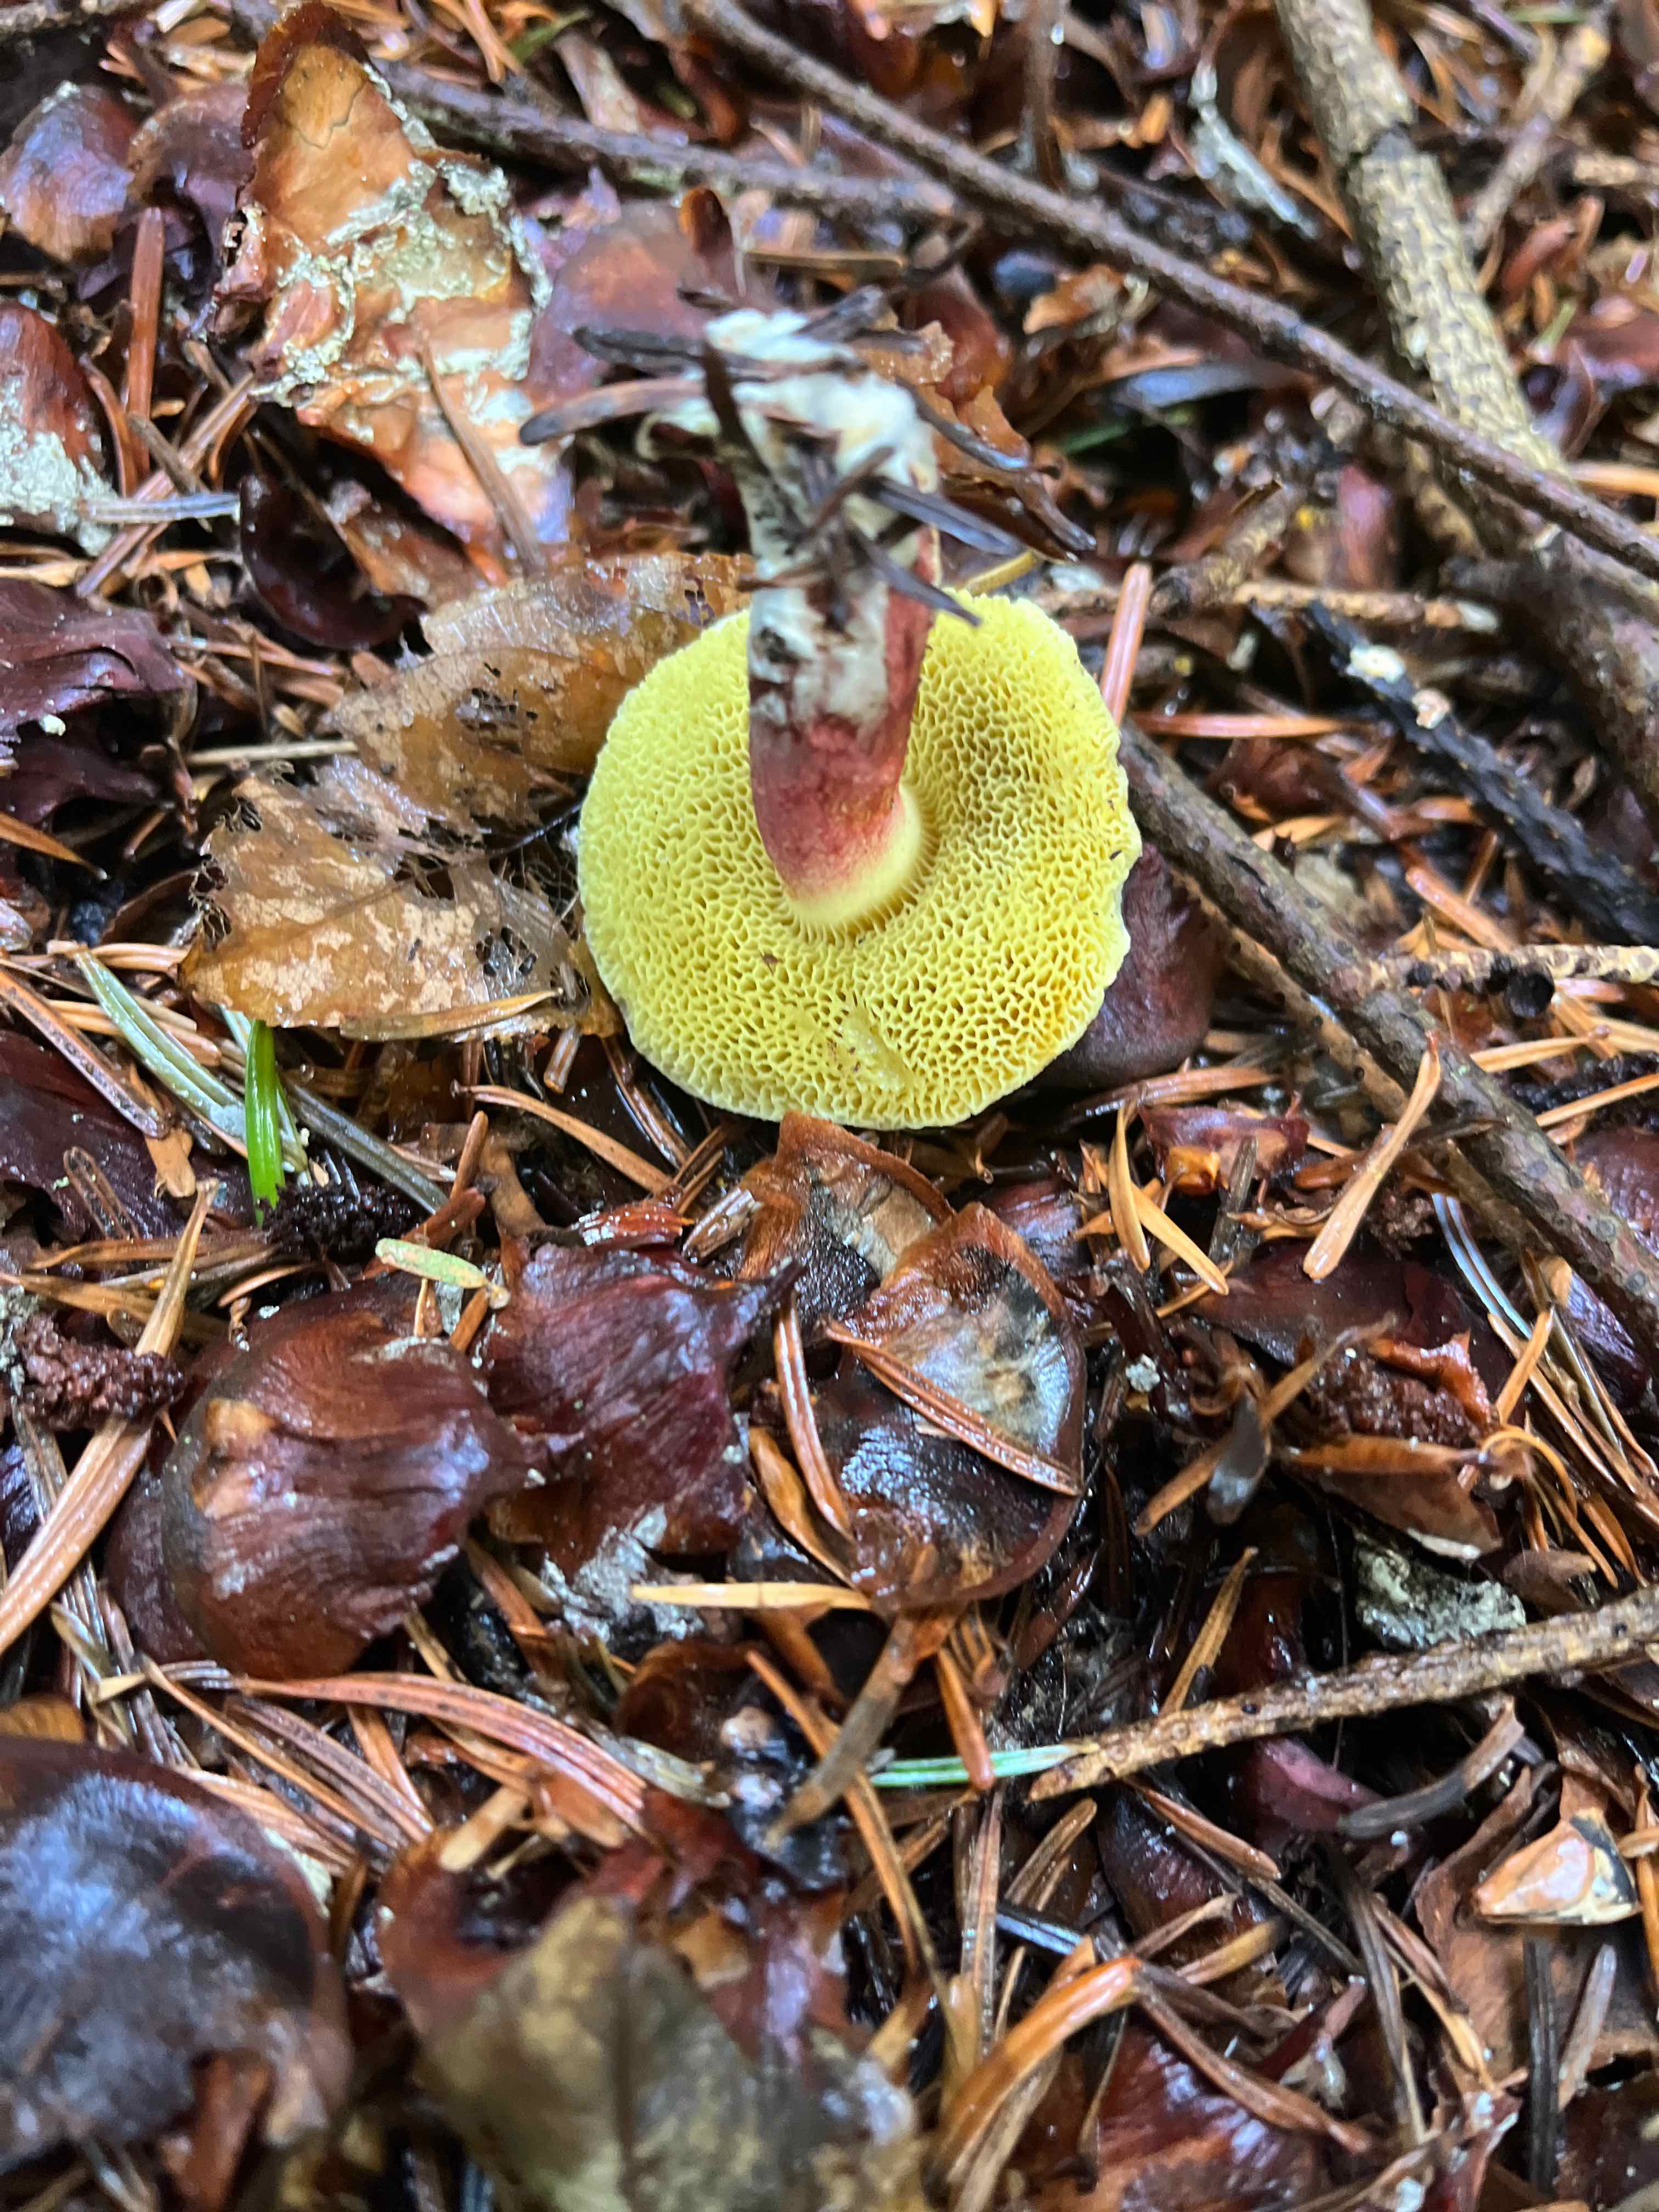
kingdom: Fungi
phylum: Basidiomycota
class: Agaricomycetes
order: Boletales
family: Boletaceae
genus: Xerocomellus
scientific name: Xerocomellus
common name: dværgrørhat
